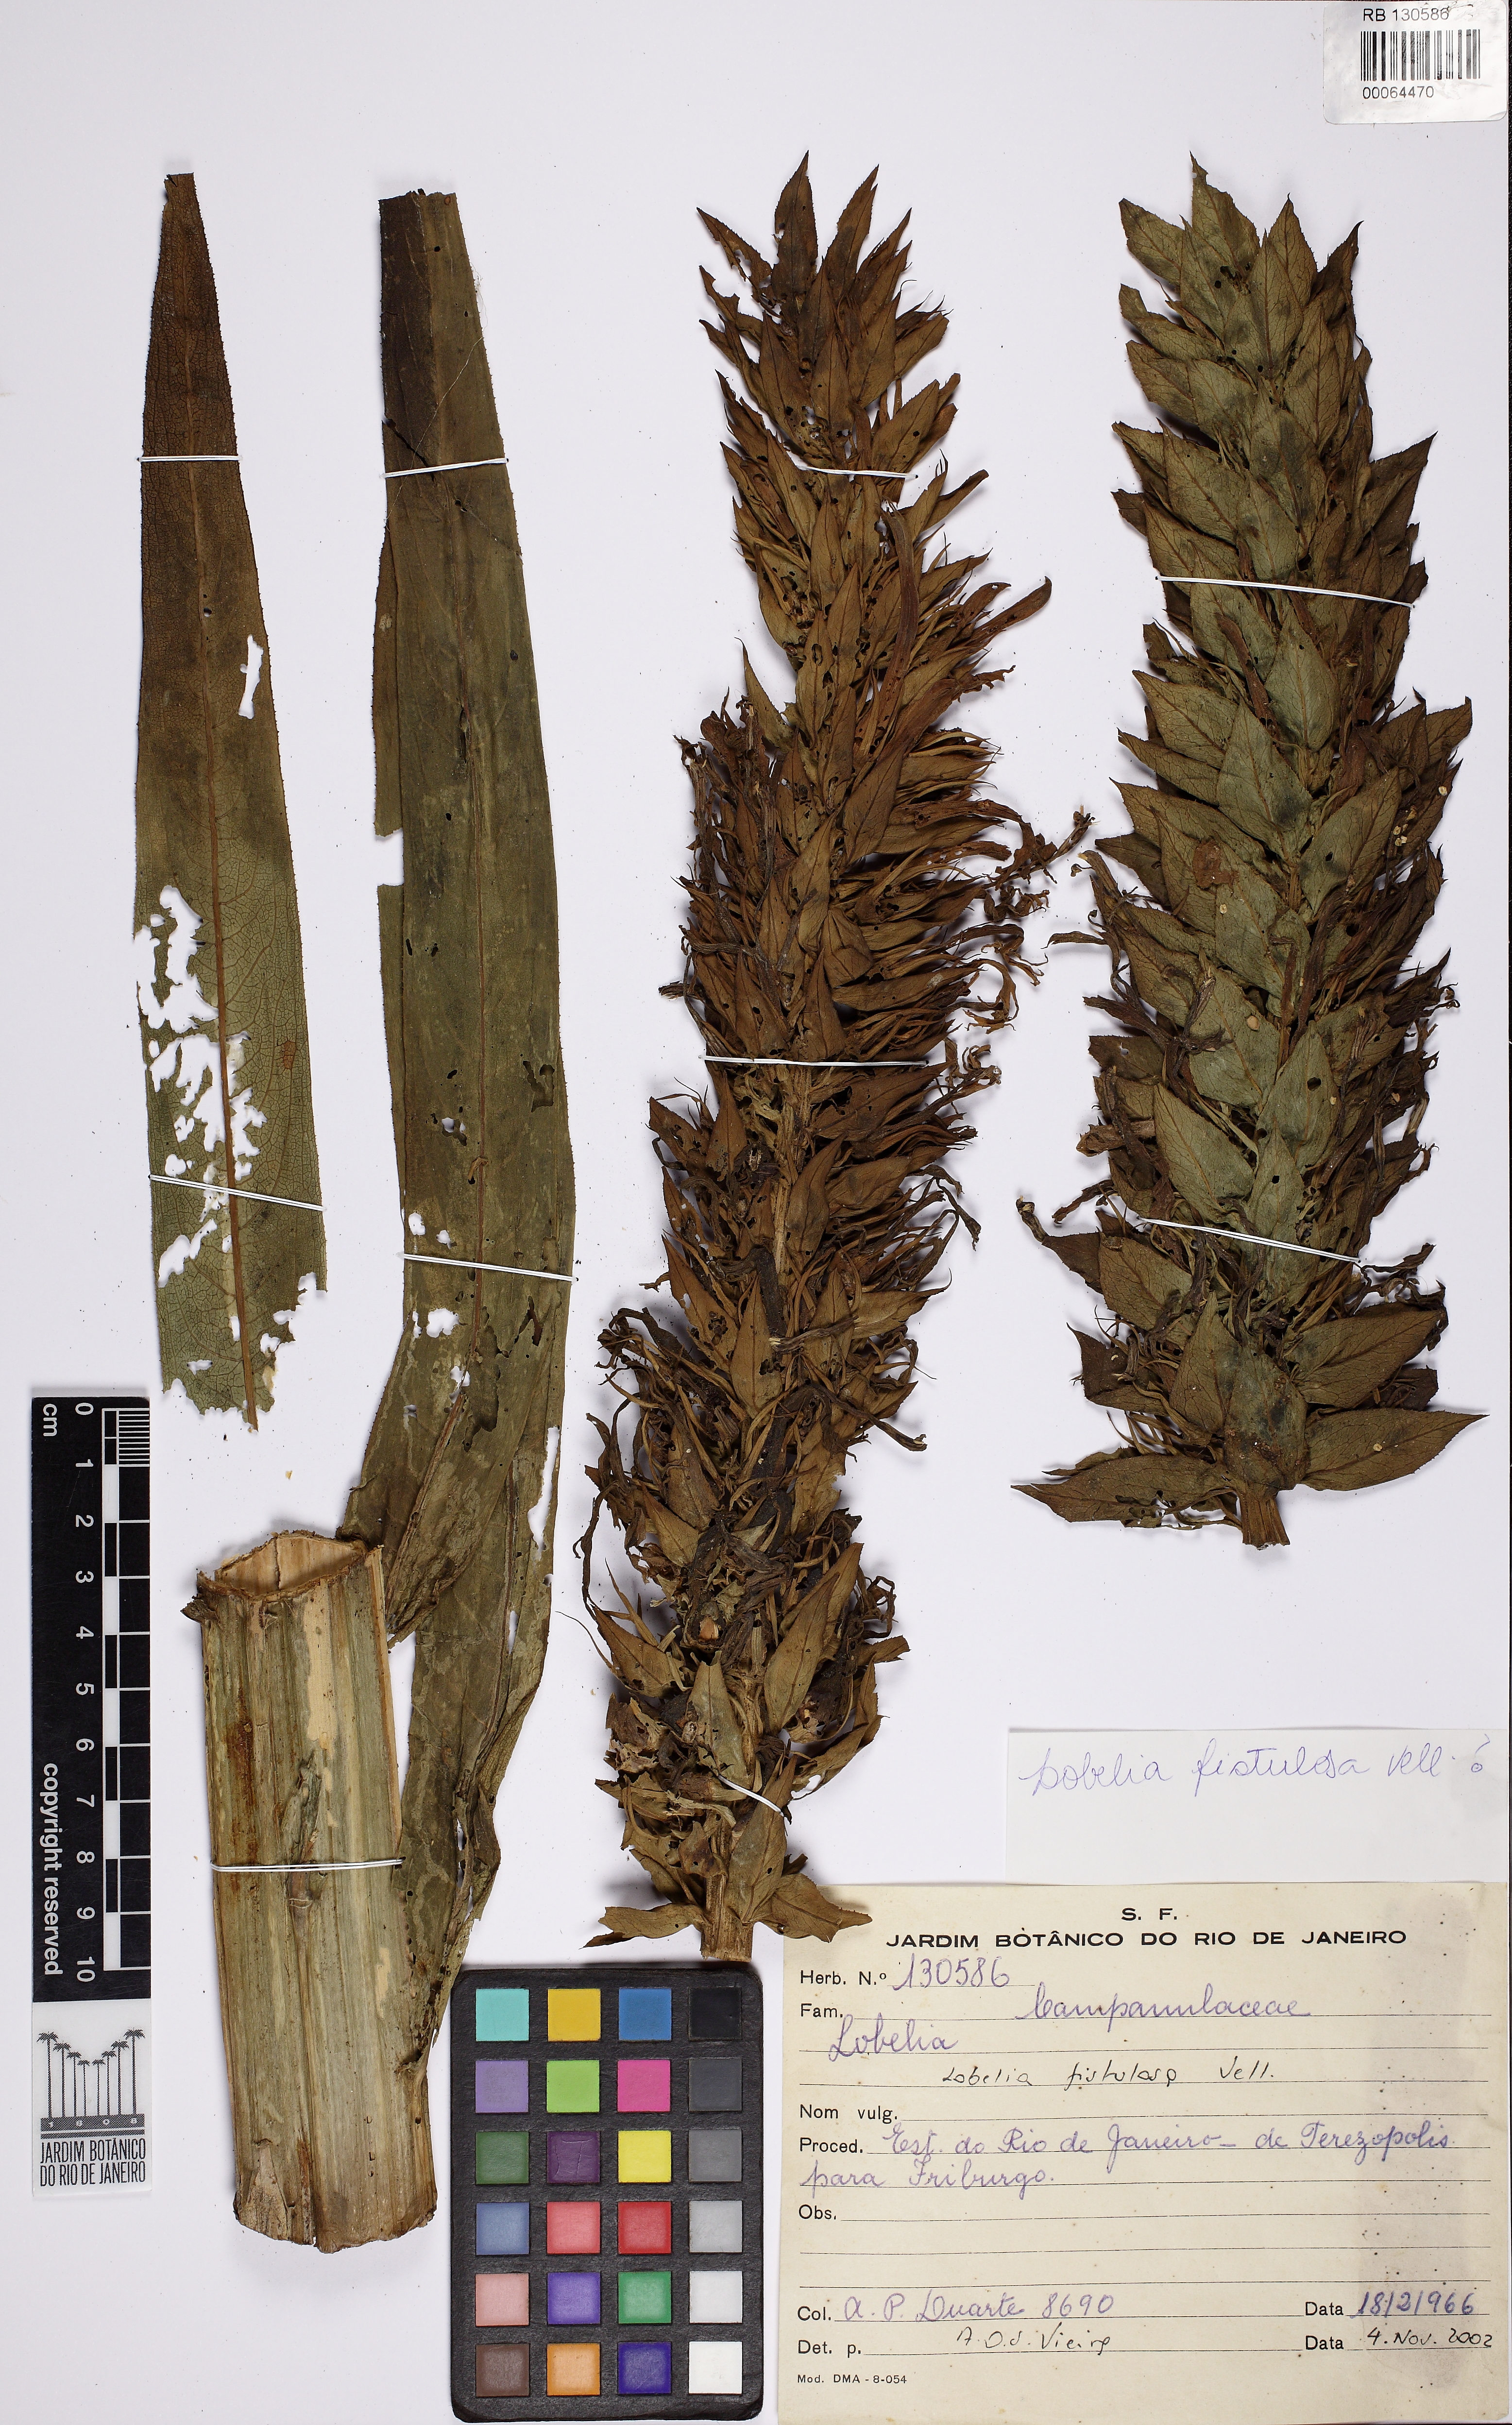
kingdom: Plantae
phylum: Tracheophyta
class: Magnoliopsida
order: Asterales
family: Campanulaceae
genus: Lobelia
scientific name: Lobelia fistulosa
